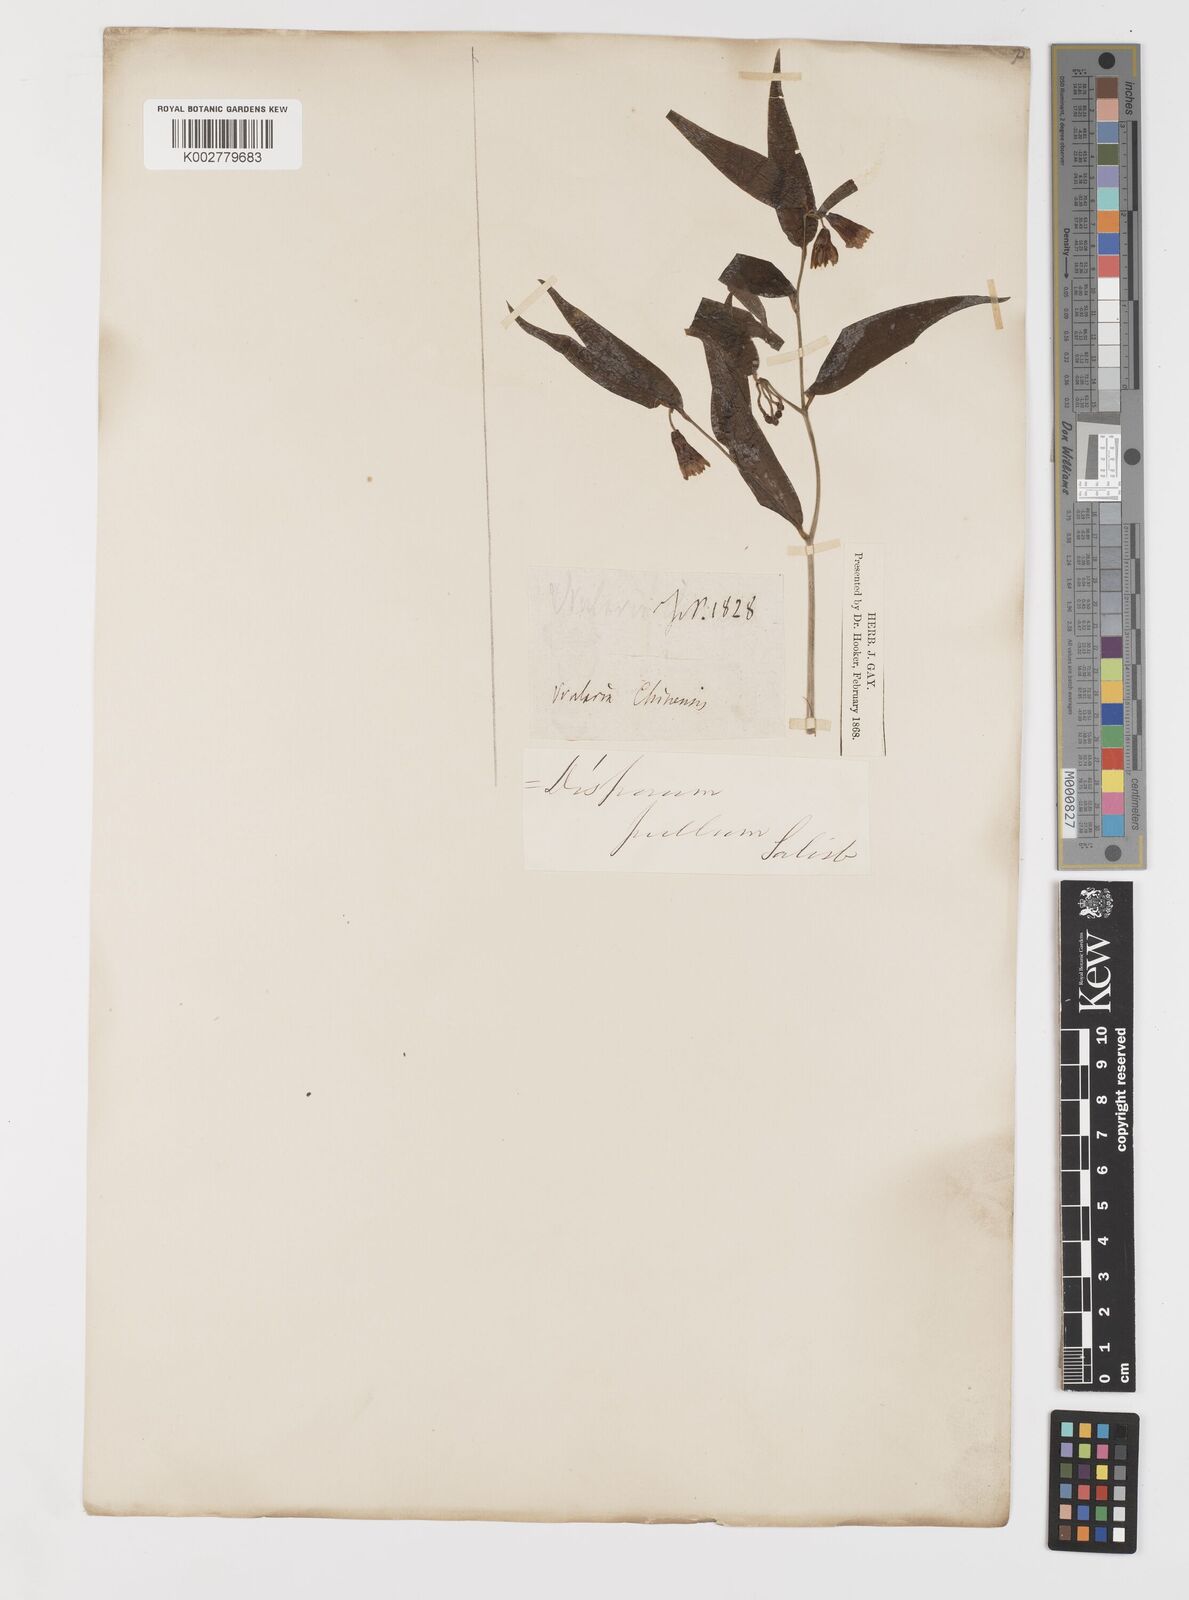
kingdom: Plantae
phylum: Tracheophyta
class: Liliopsida
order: Liliales
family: Colchicaceae
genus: Disporum
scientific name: Disporum cantoniense
